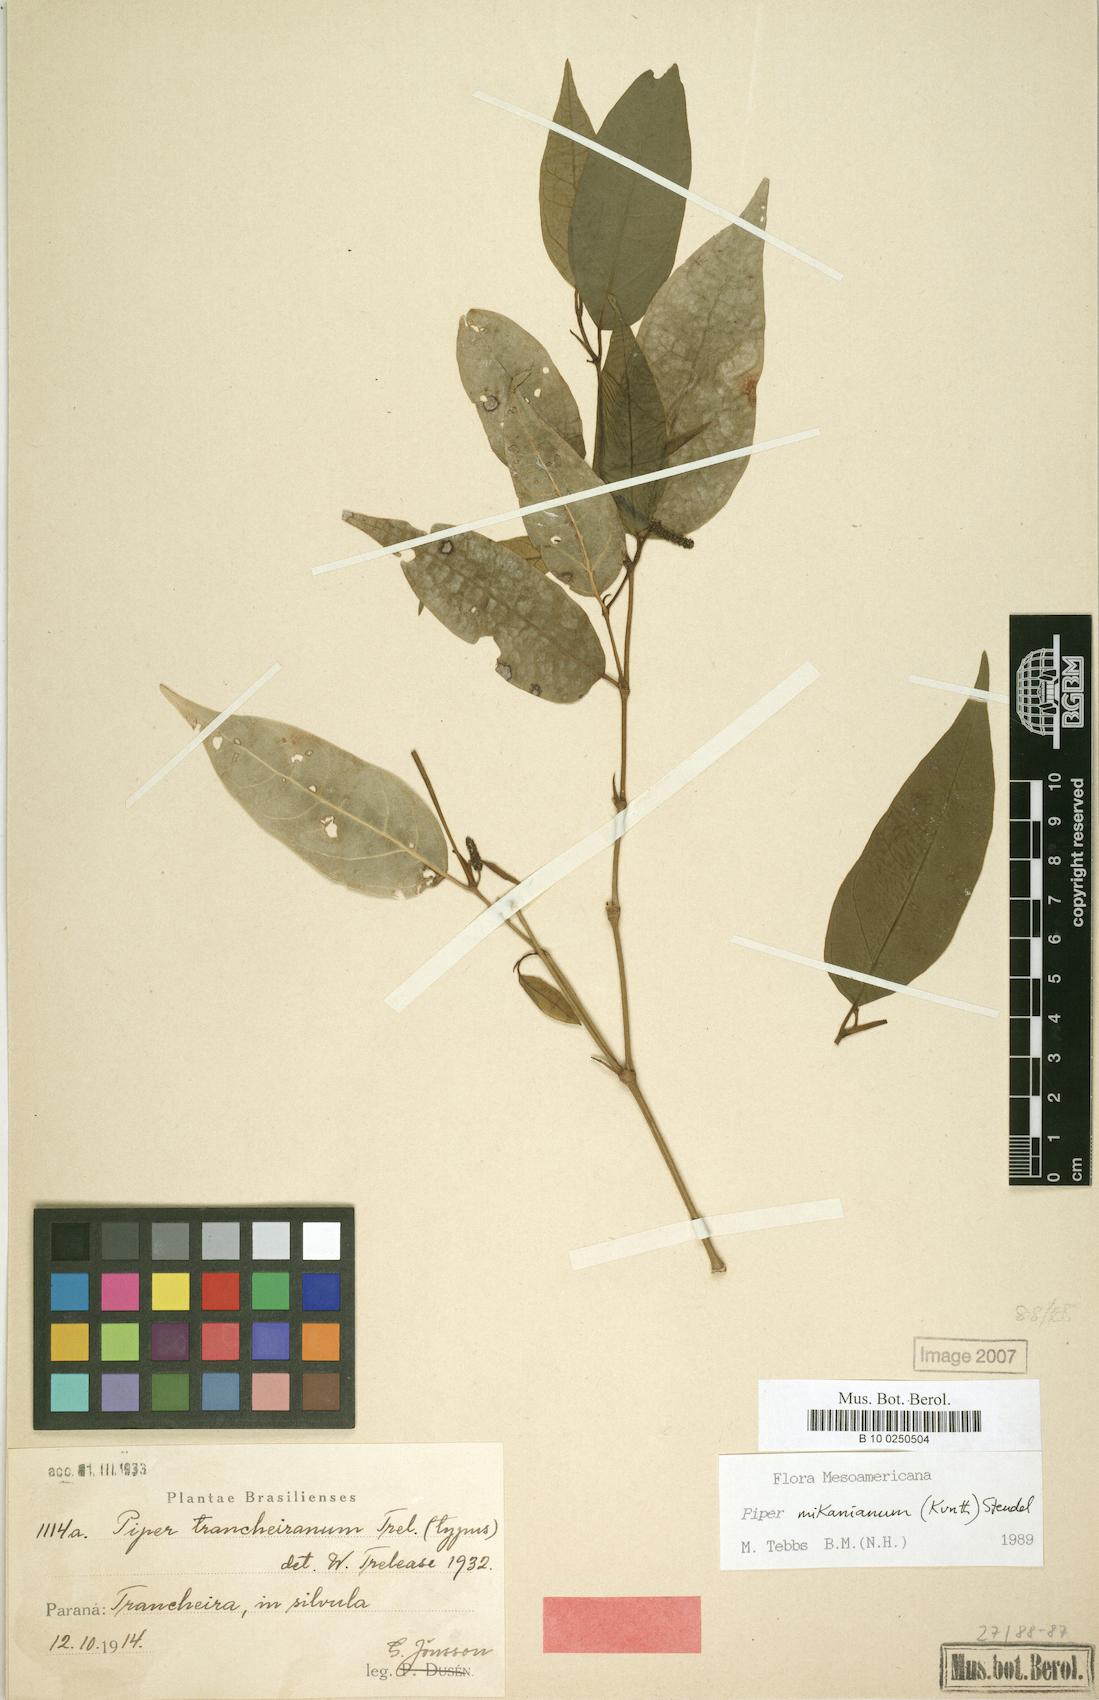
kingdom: Plantae
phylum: Tracheophyta
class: Magnoliopsida
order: Piperales
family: Piperaceae
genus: Piper
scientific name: Piper mikanianum
